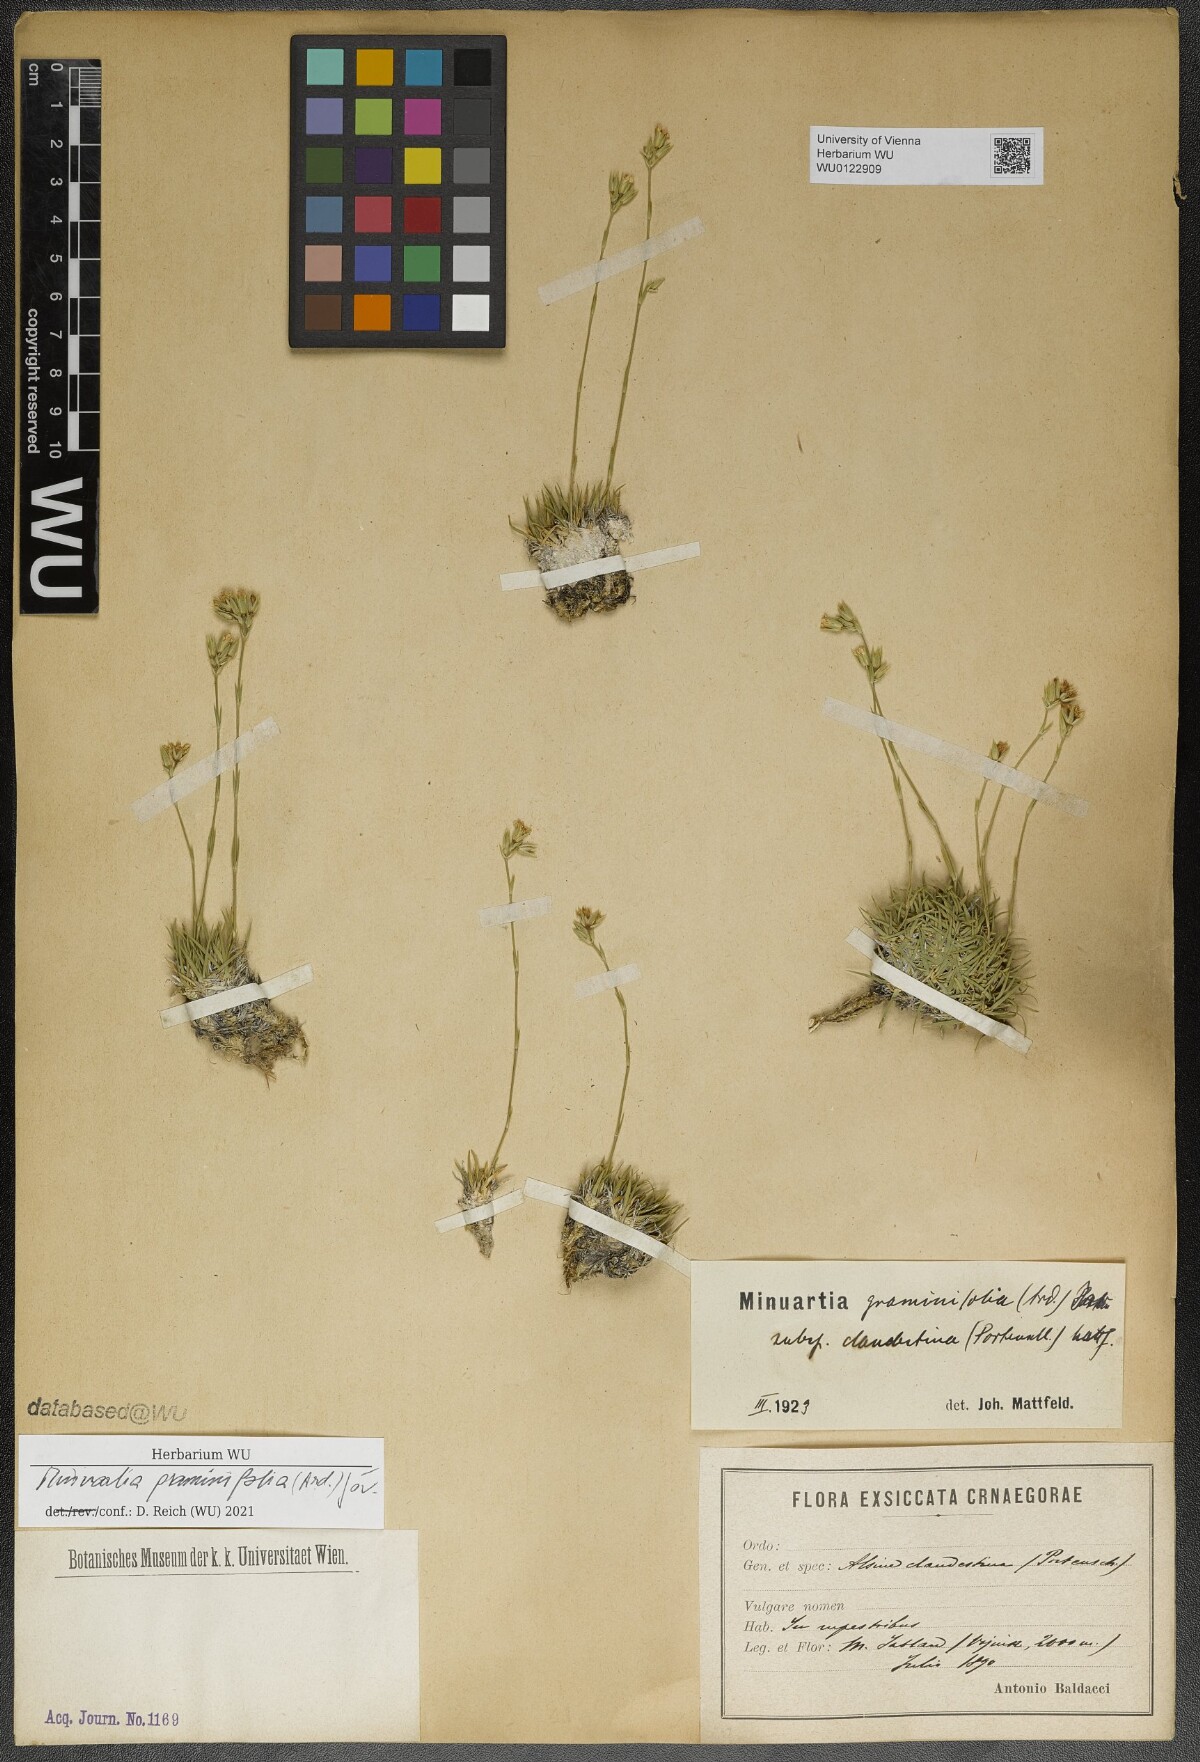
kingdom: Plantae
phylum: Tracheophyta
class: Magnoliopsida
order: Caryophyllales
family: Caryophyllaceae
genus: Mcneillia
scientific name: Mcneillia graminifolia
